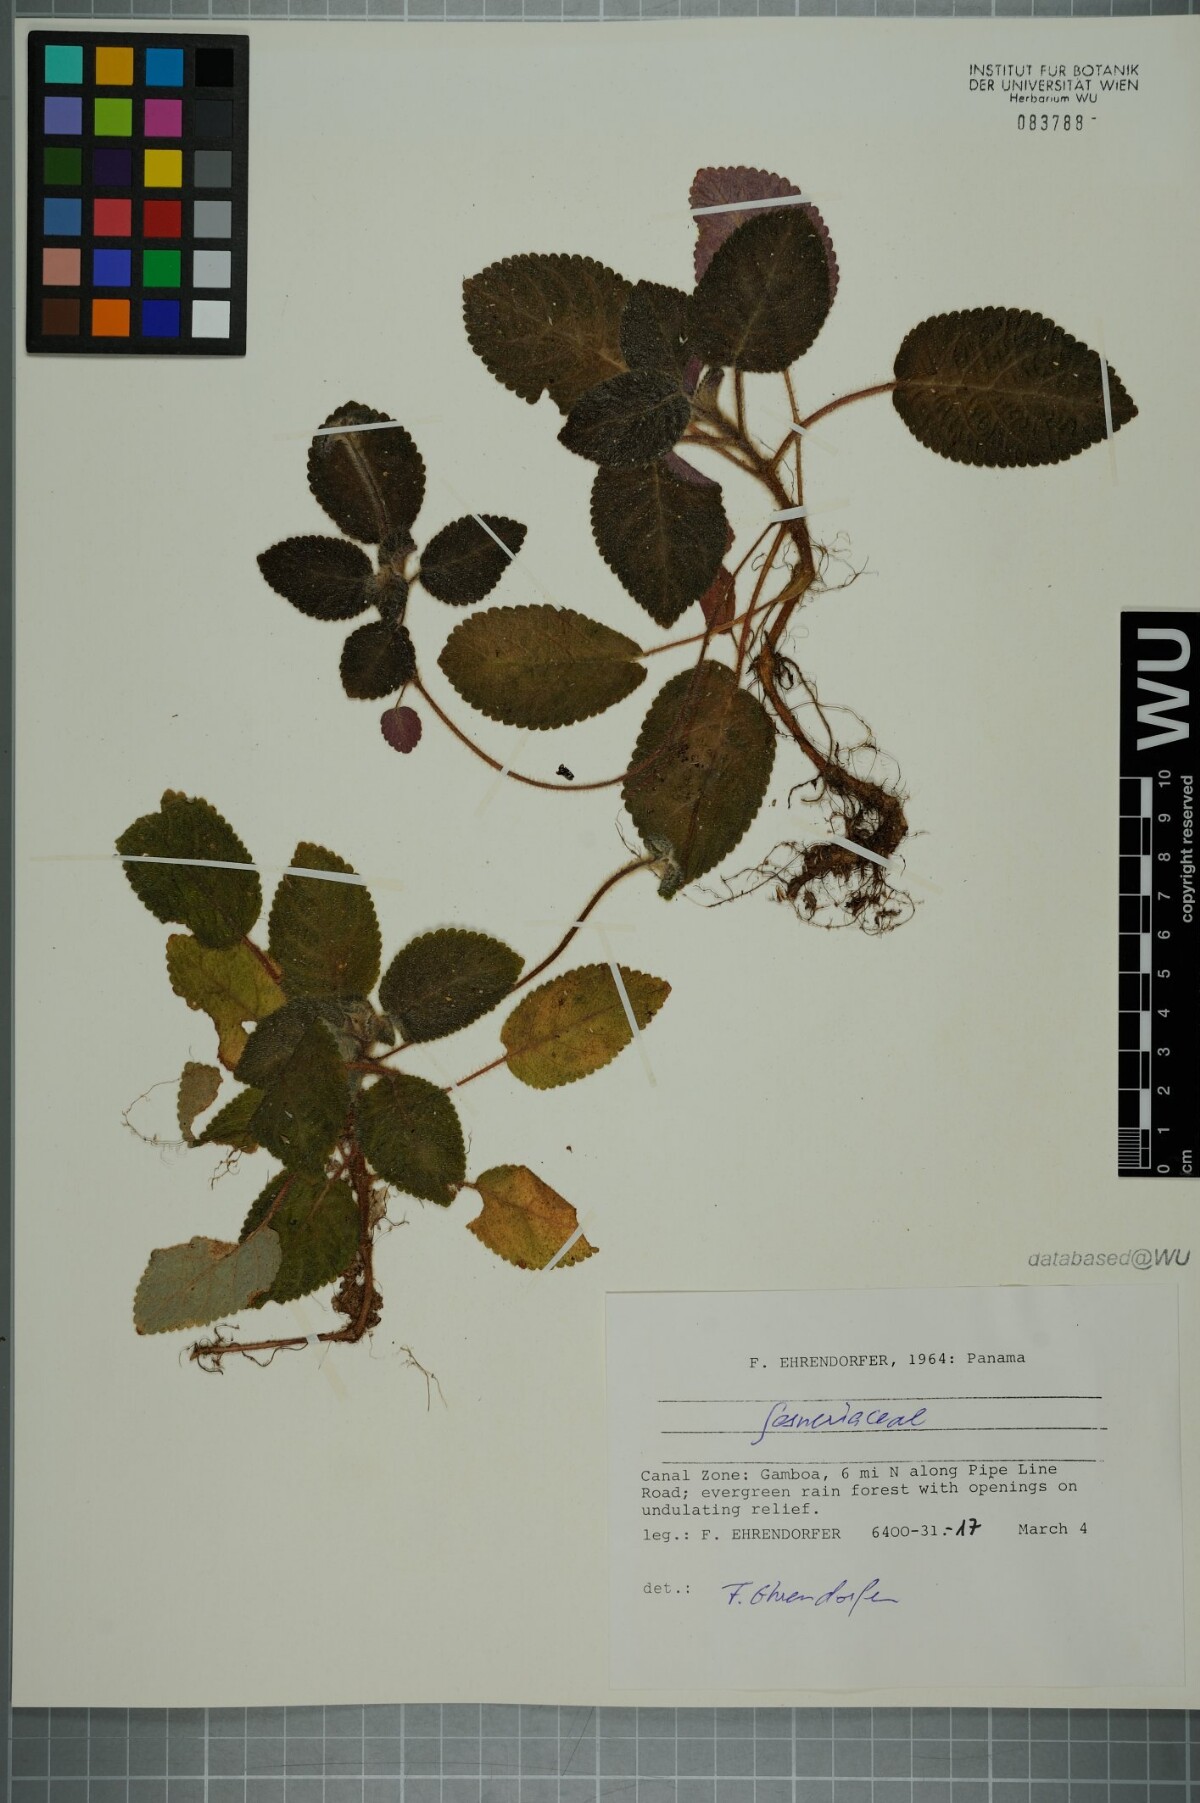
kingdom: Plantae
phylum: Tracheophyta
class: Magnoliopsida
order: Lamiales
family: Gesneriaceae
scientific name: Gesneriaceae
